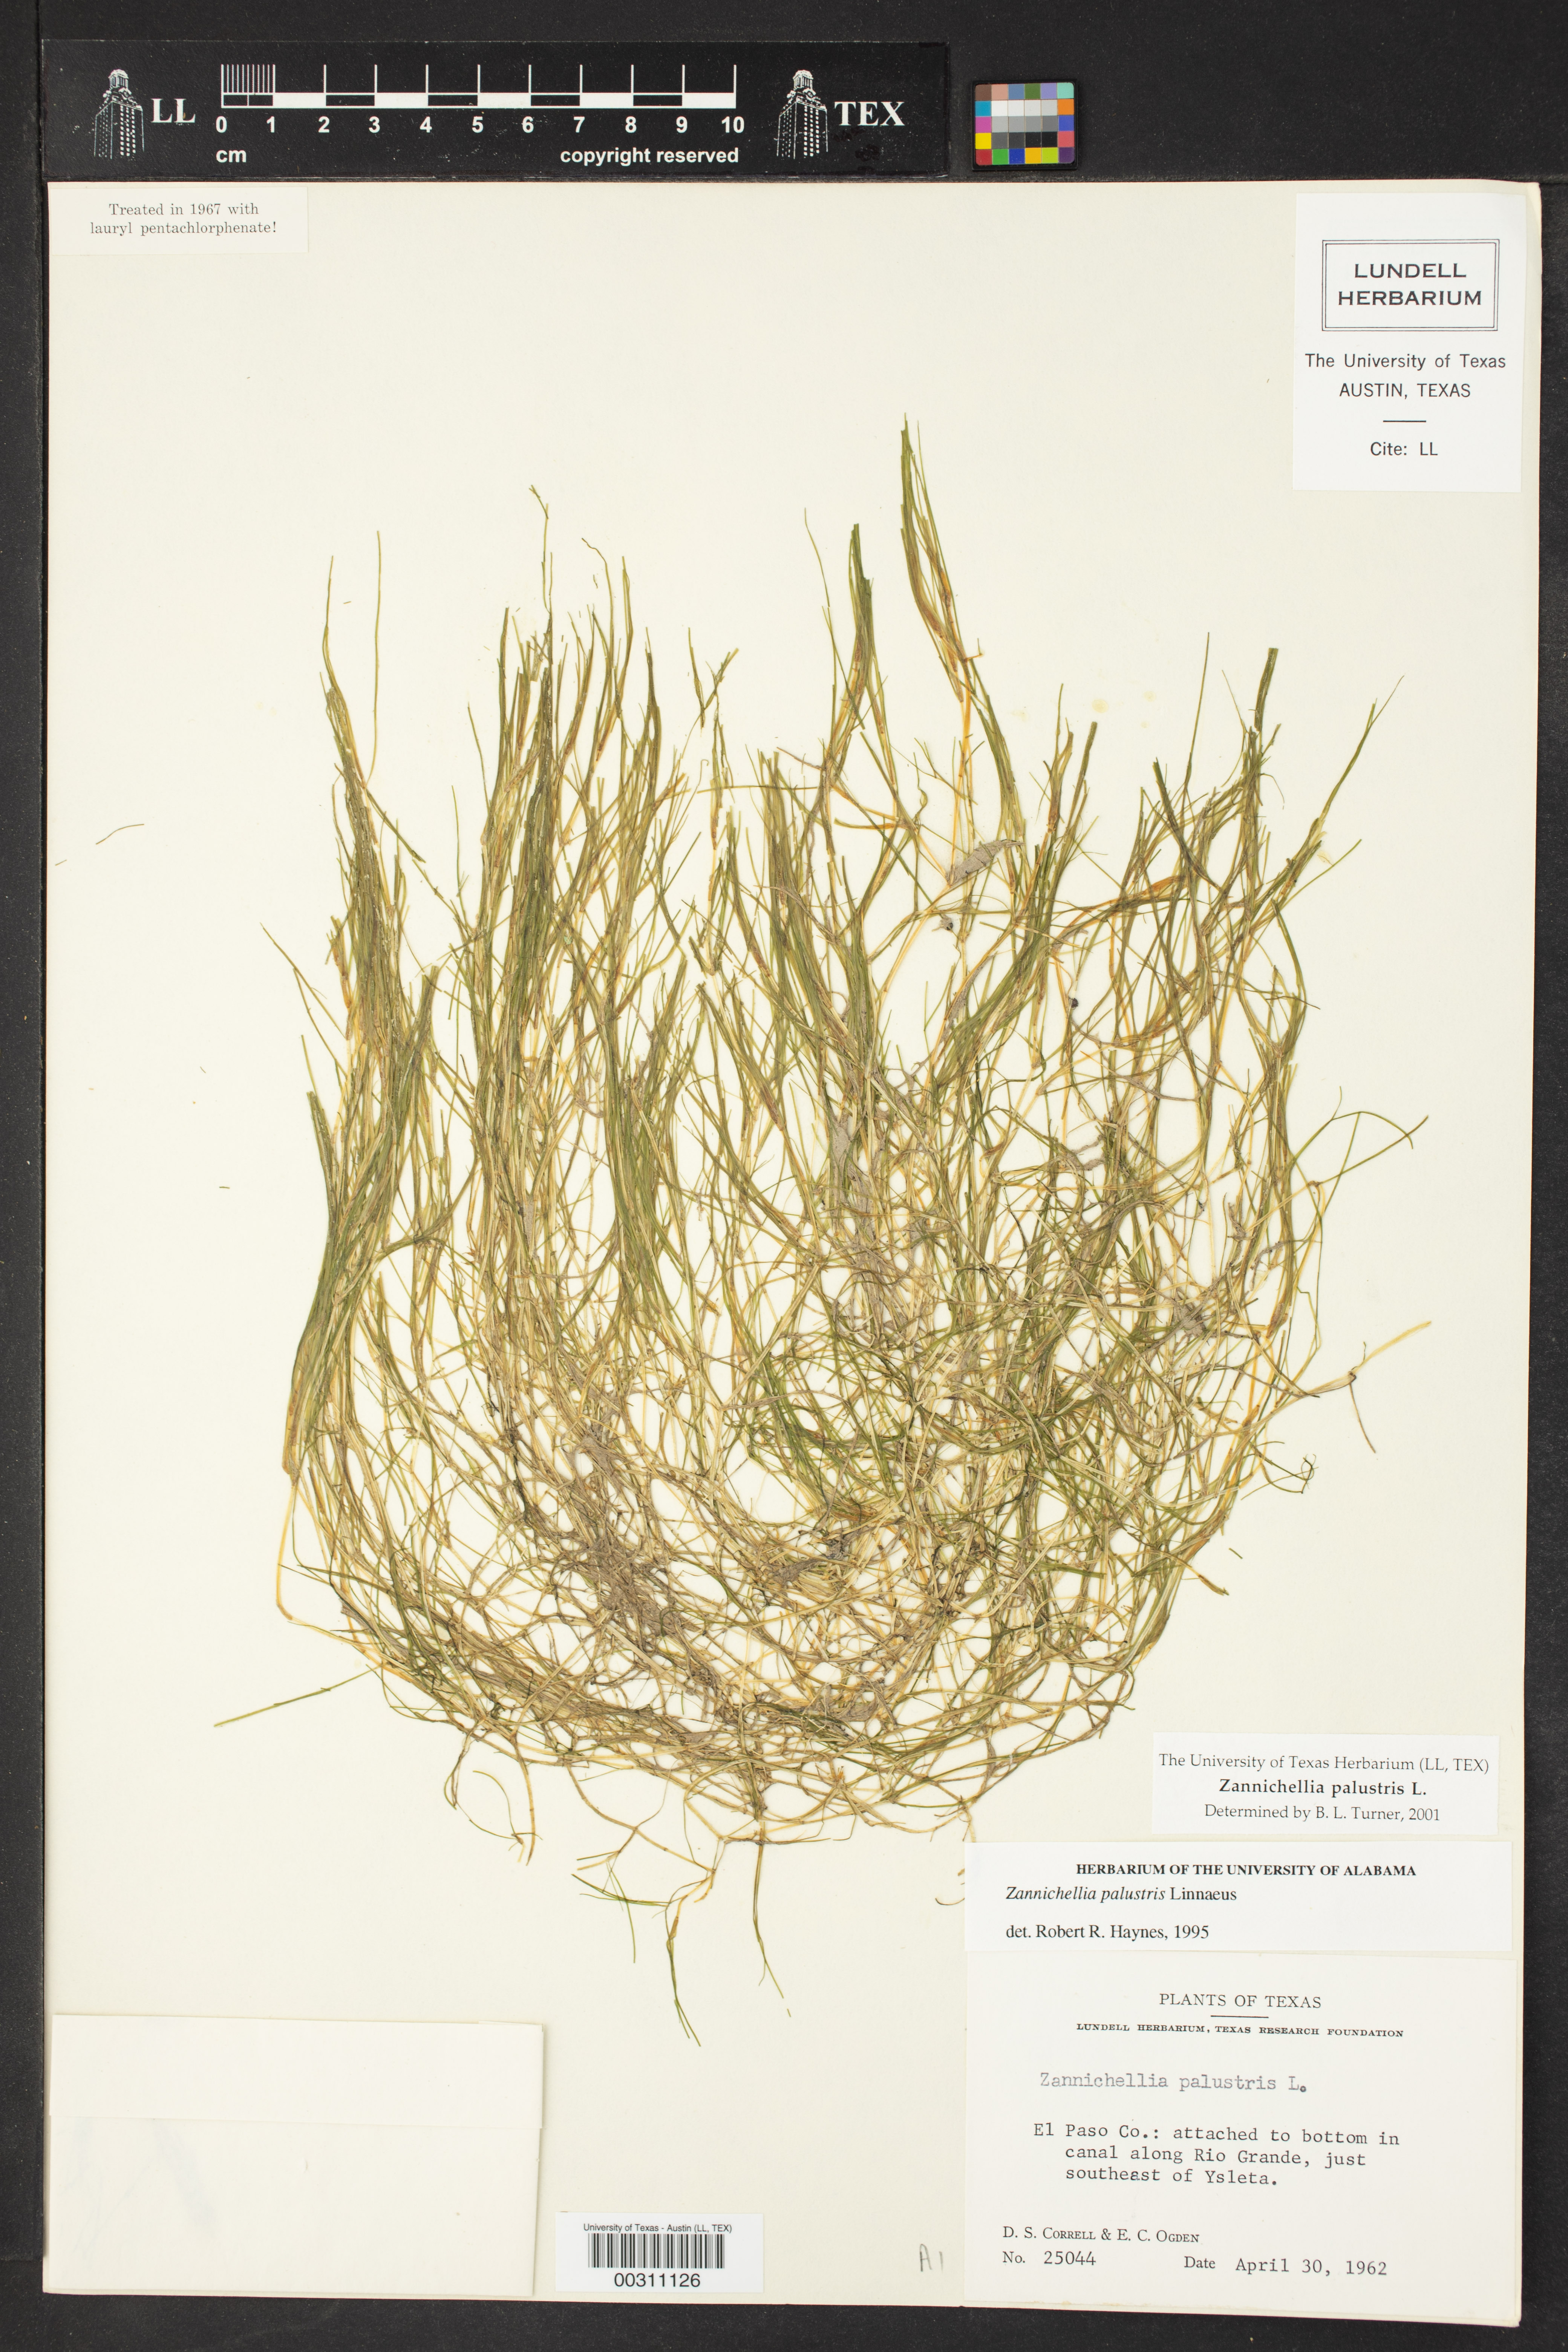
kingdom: Plantae
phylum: Tracheophyta
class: Liliopsida
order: Alismatales
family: Potamogetonaceae
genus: Zannichellia
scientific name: Zannichellia palustris
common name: Horned pondweed
